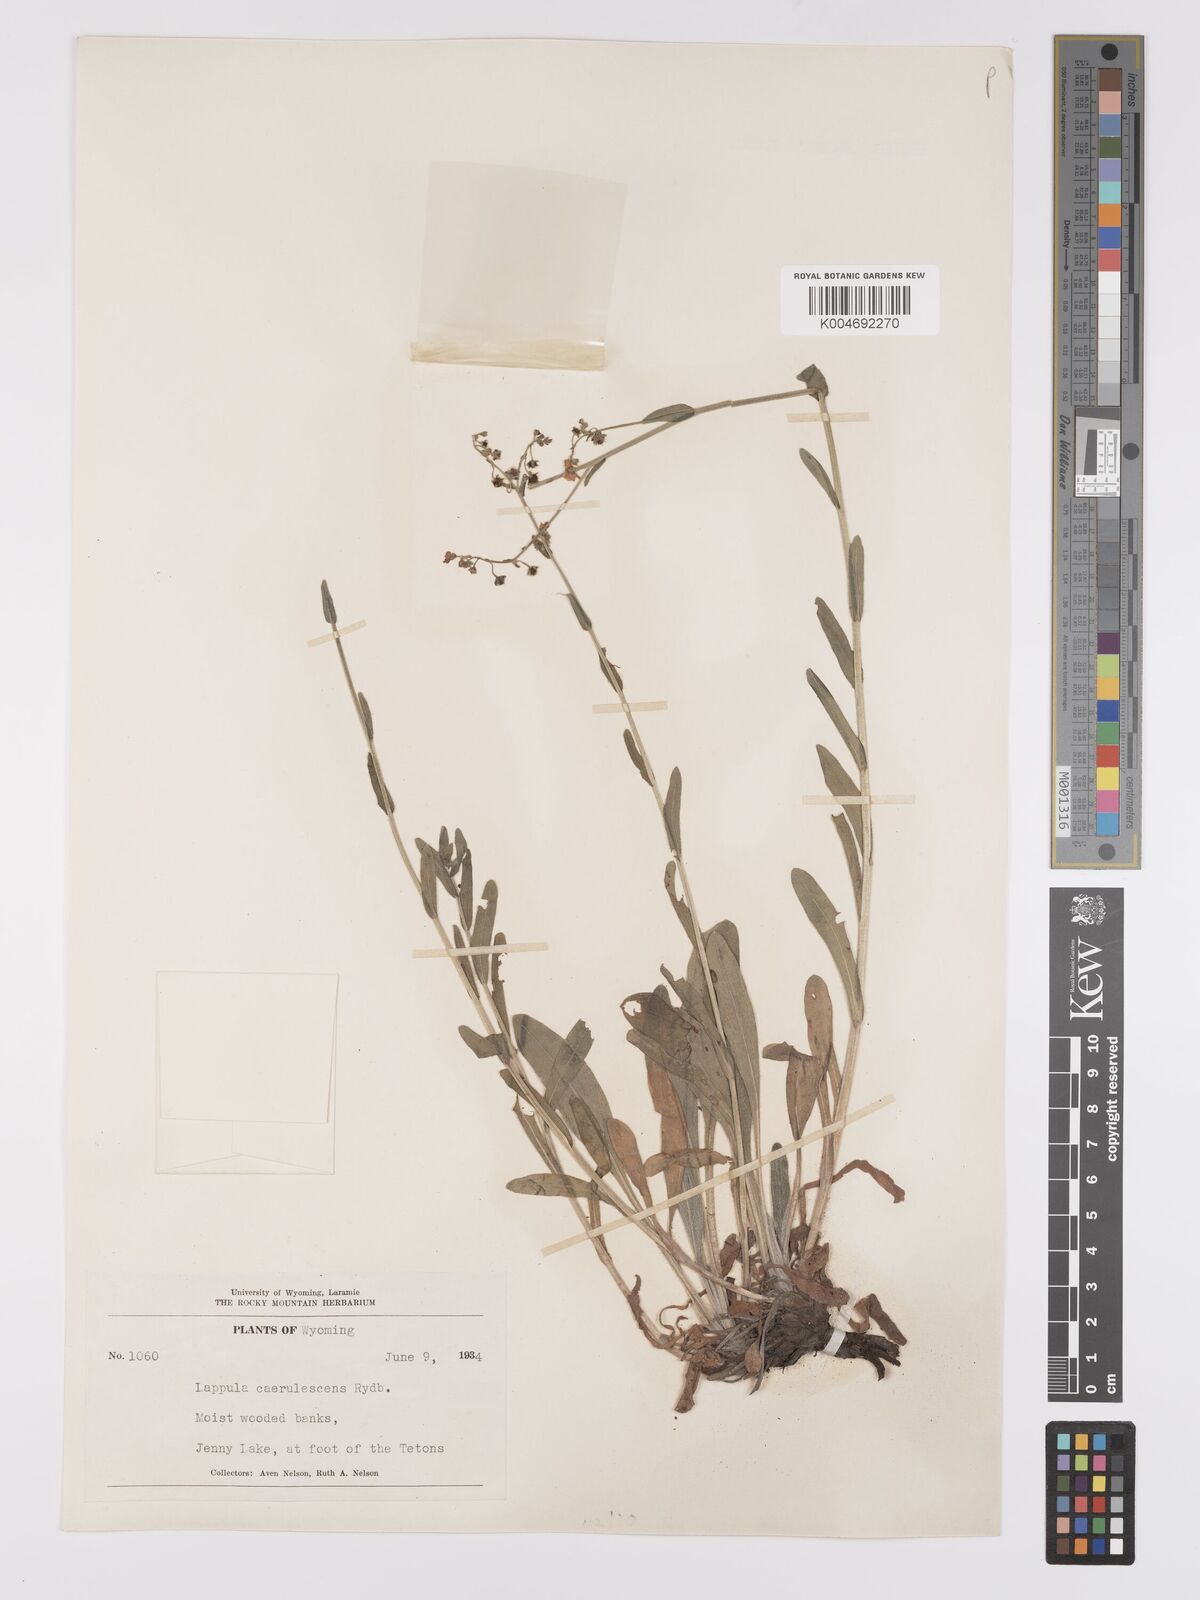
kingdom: Plantae
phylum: Tracheophyta
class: Magnoliopsida
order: Boraginales
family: Boraginaceae
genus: Hackelia
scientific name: Hackelia patens
